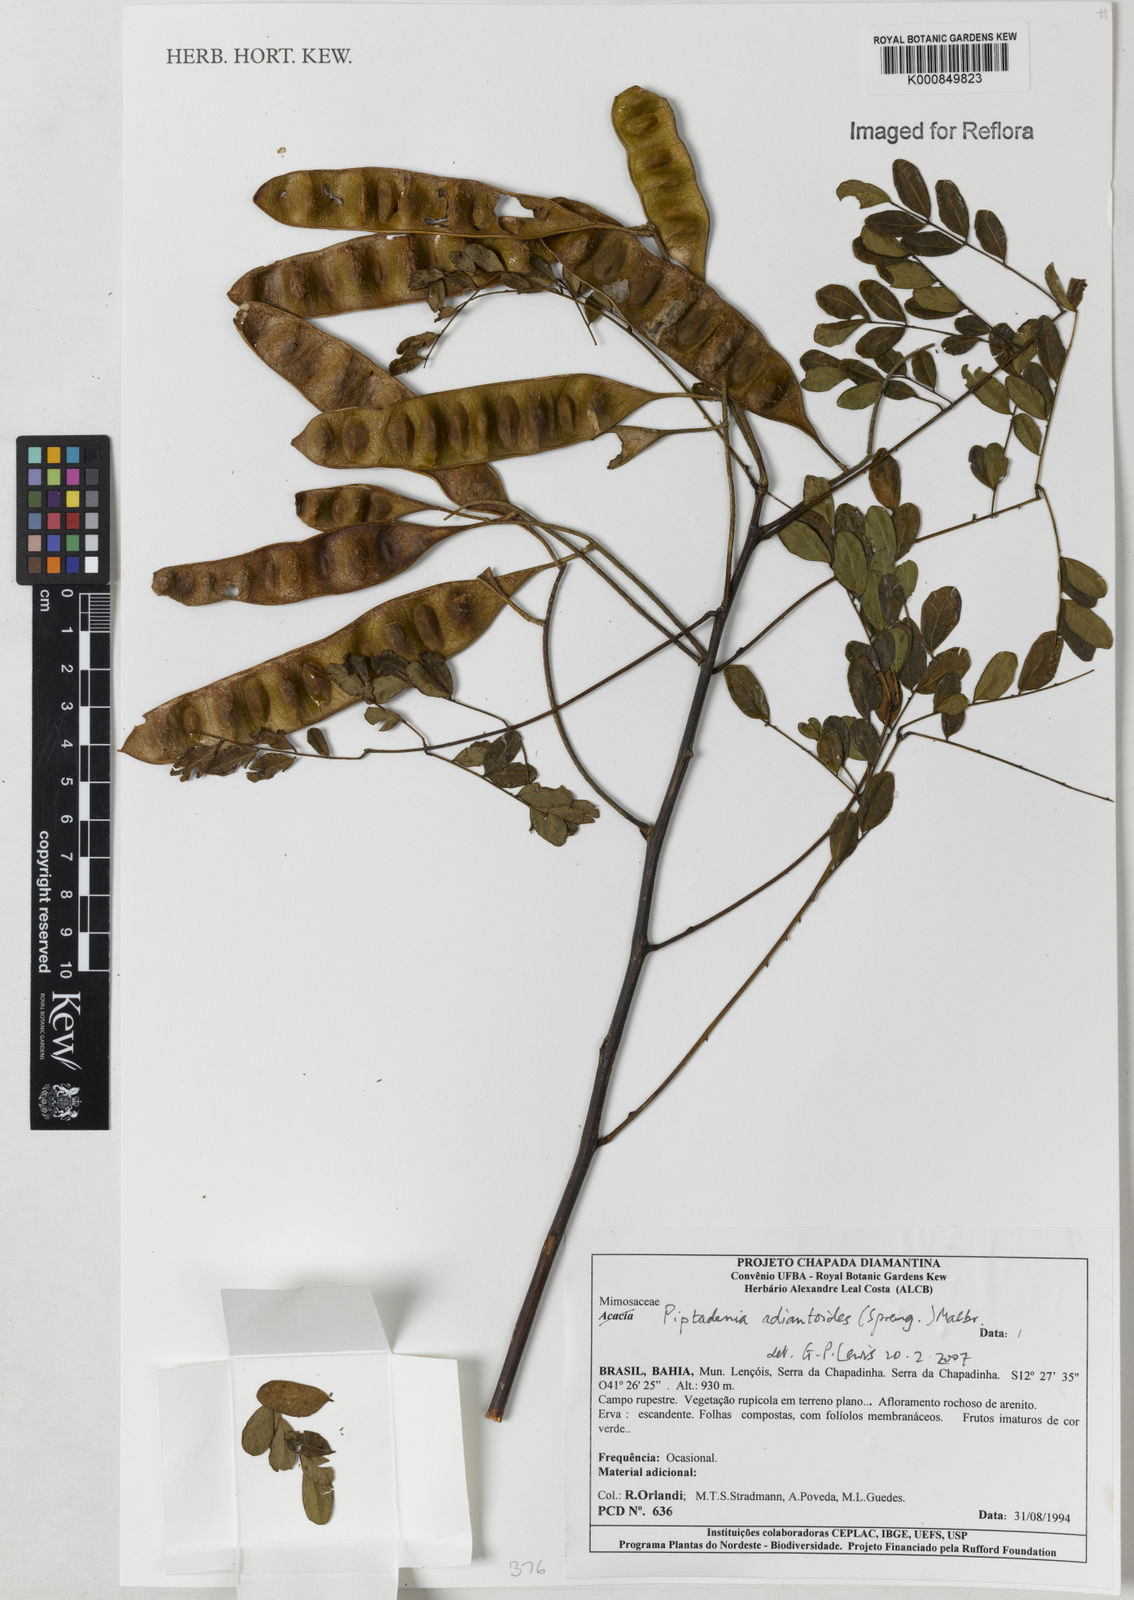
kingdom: Plantae
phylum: Tracheophyta
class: Magnoliopsida
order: Fabales
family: Fabaceae
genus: Piptadenia
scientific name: Piptadenia adiantoides
